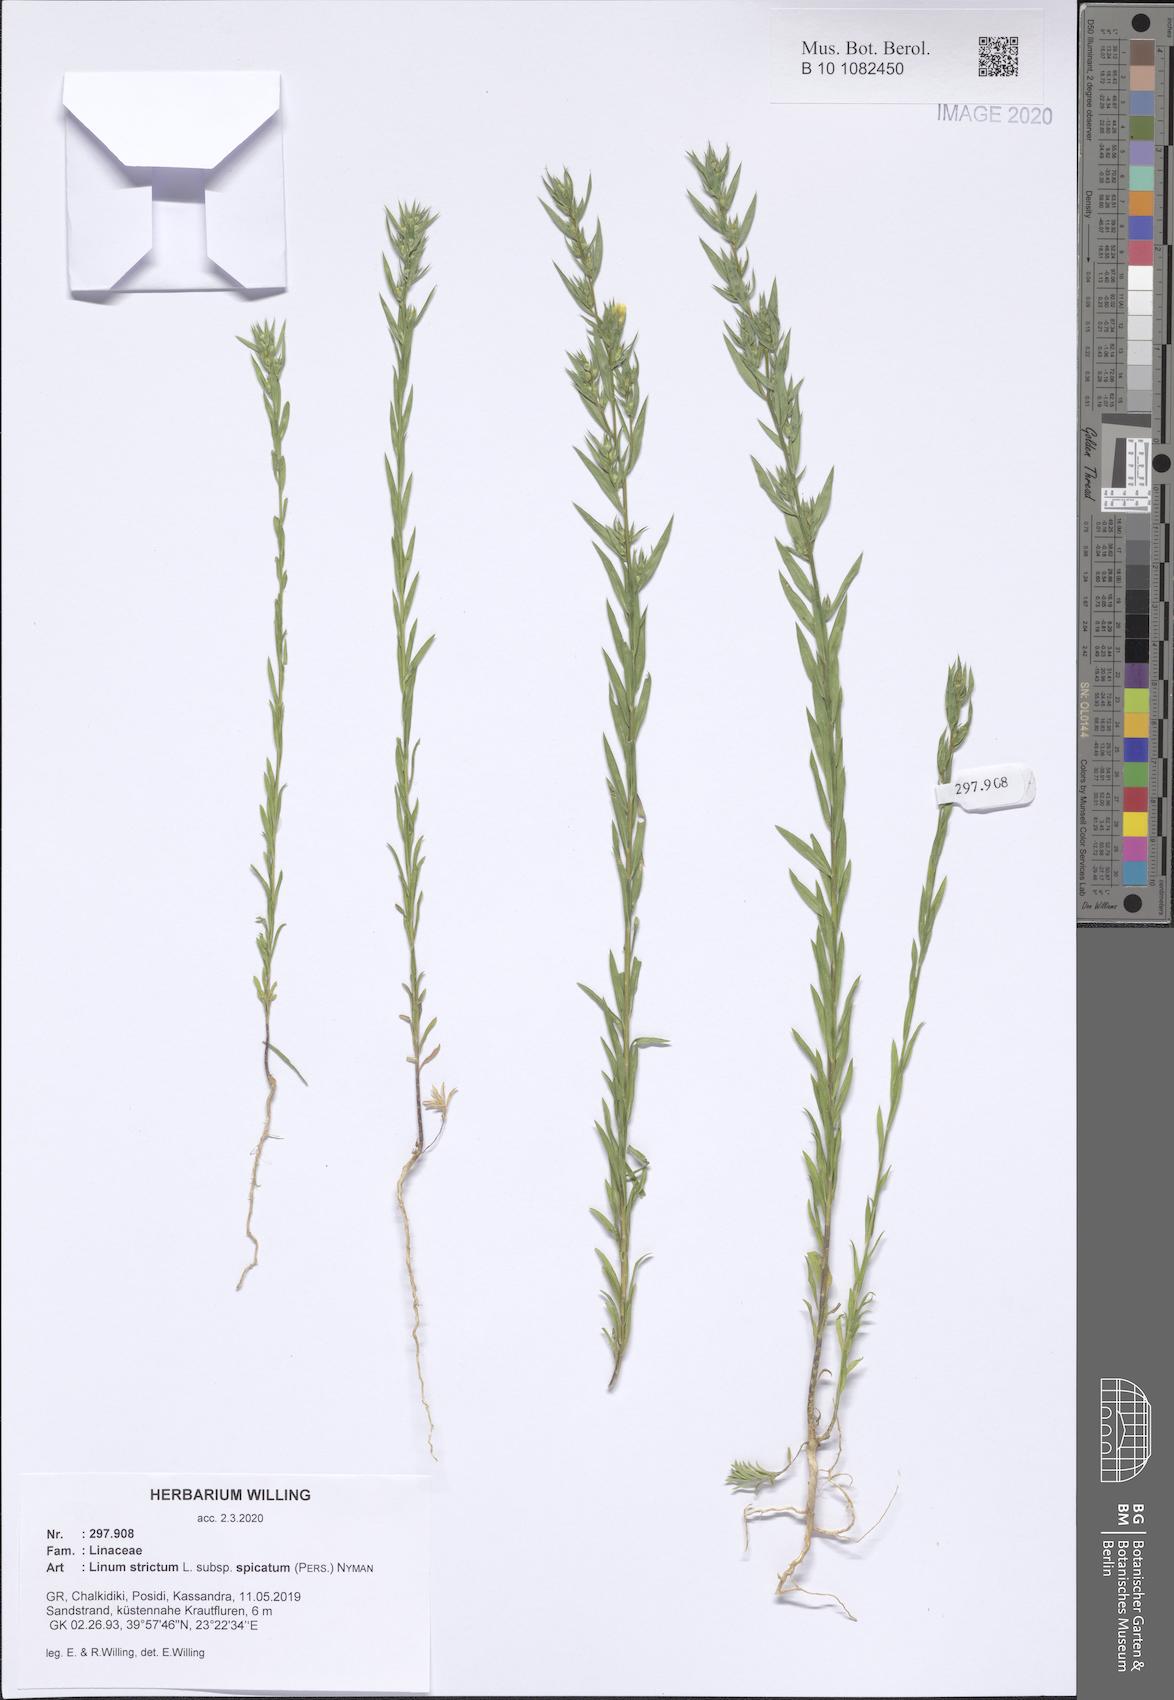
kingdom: Plantae
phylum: Tracheophyta
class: Magnoliopsida
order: Malpighiales
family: Linaceae
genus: Linum
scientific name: Linum strictum
